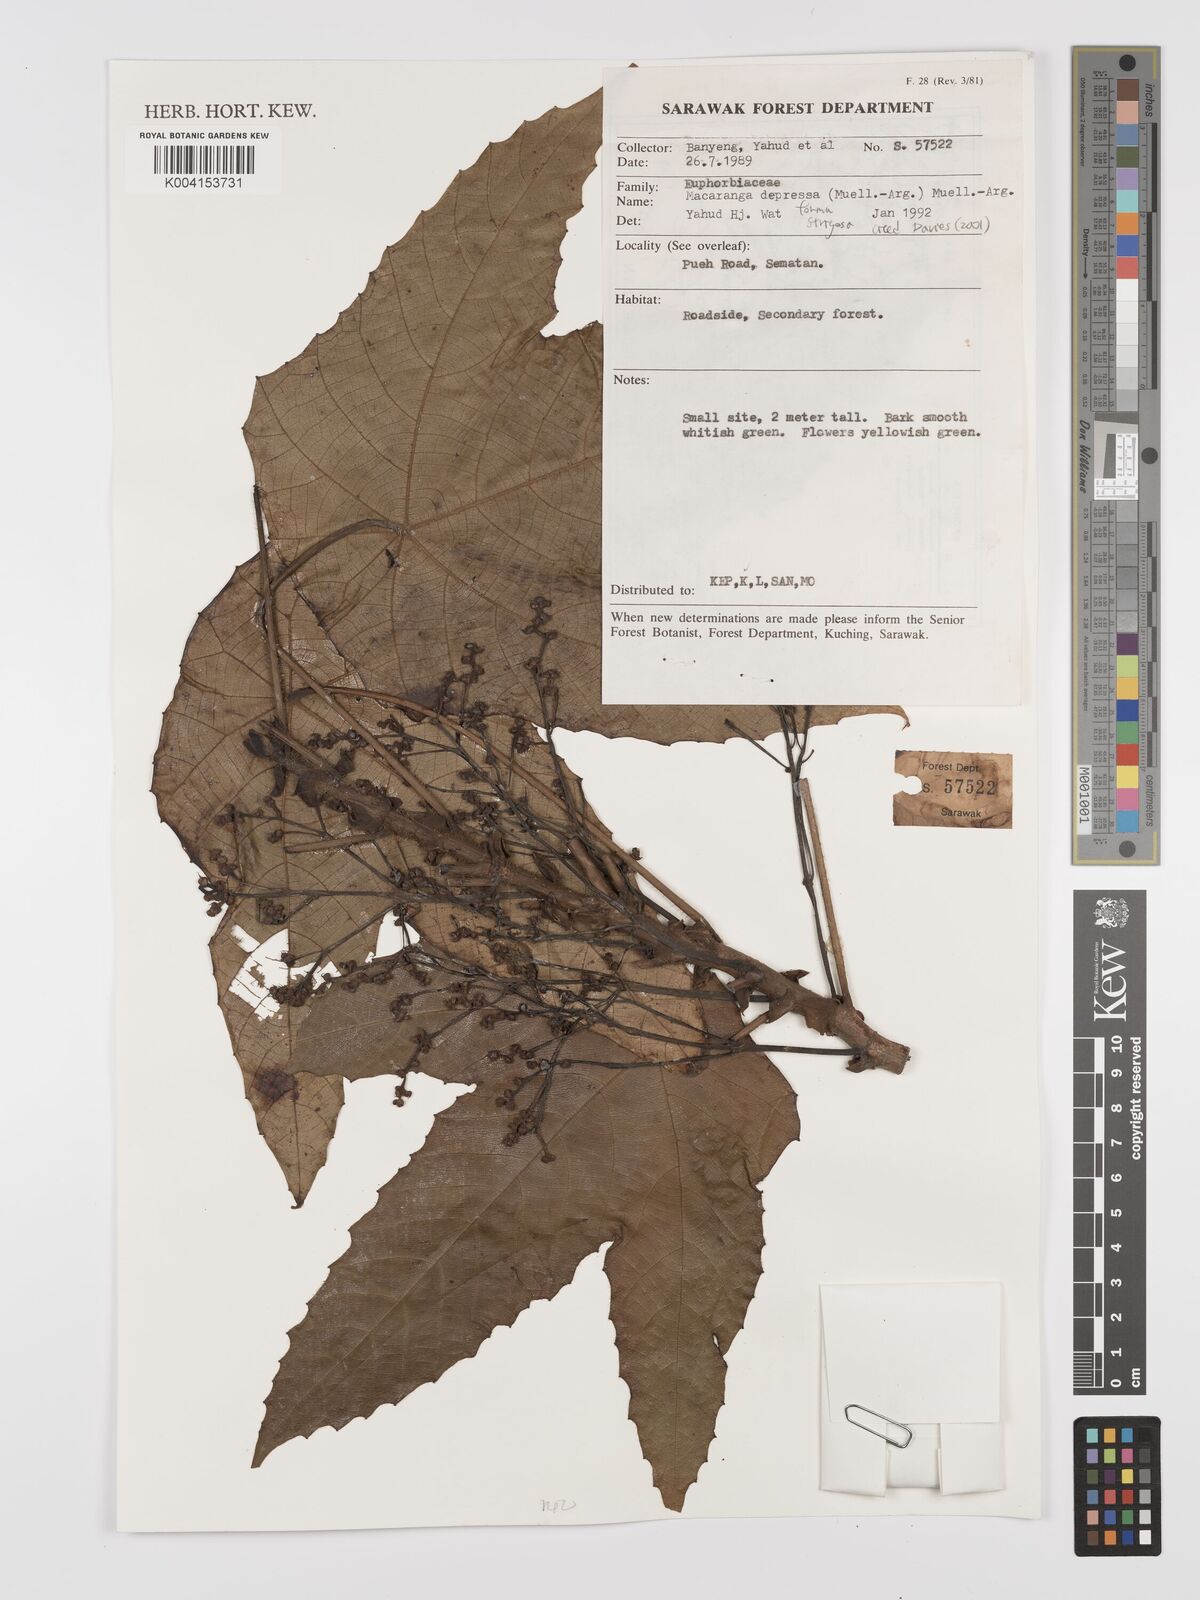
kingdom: Plantae
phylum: Tracheophyta
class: Magnoliopsida
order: Malpighiales
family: Euphorbiaceae
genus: Macaranga
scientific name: Macaranga depressa
